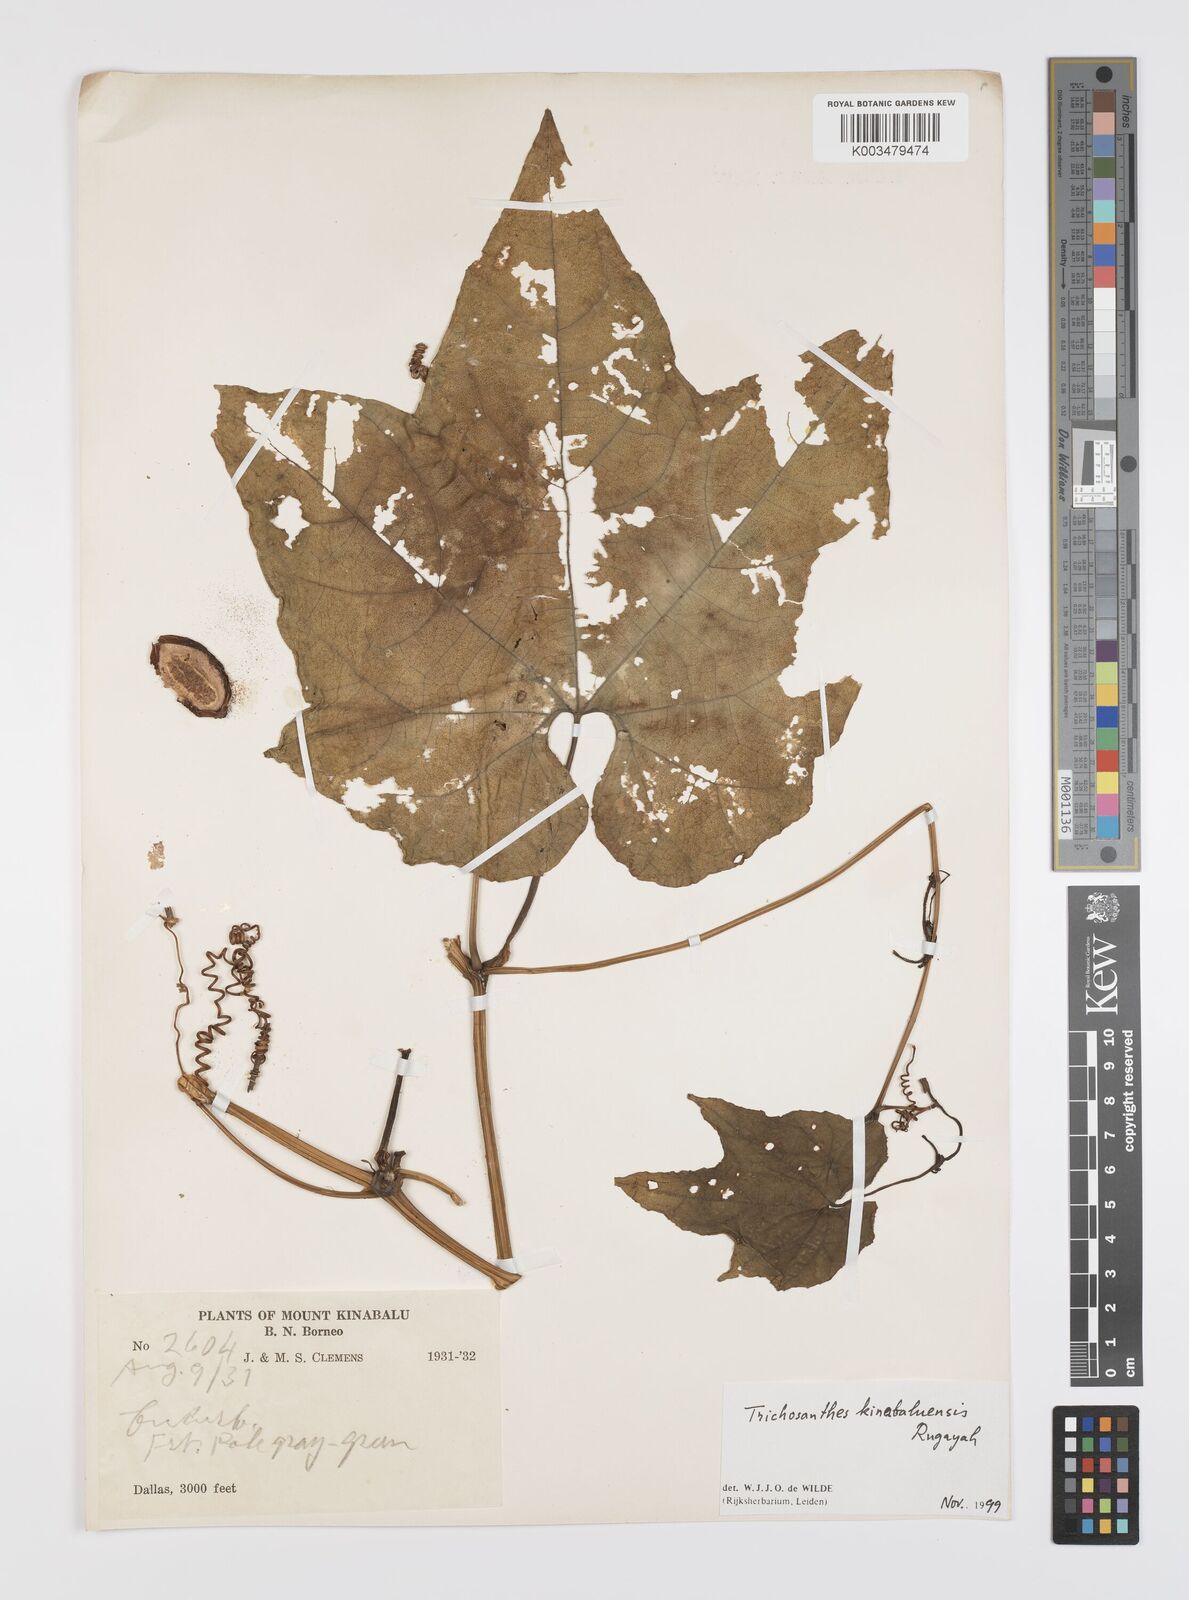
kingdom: Plantae
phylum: Tracheophyta
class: Magnoliopsida
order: Cucurbitales
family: Cucurbitaceae
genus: Trichosanthes
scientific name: Trichosanthes kinabaluensis
